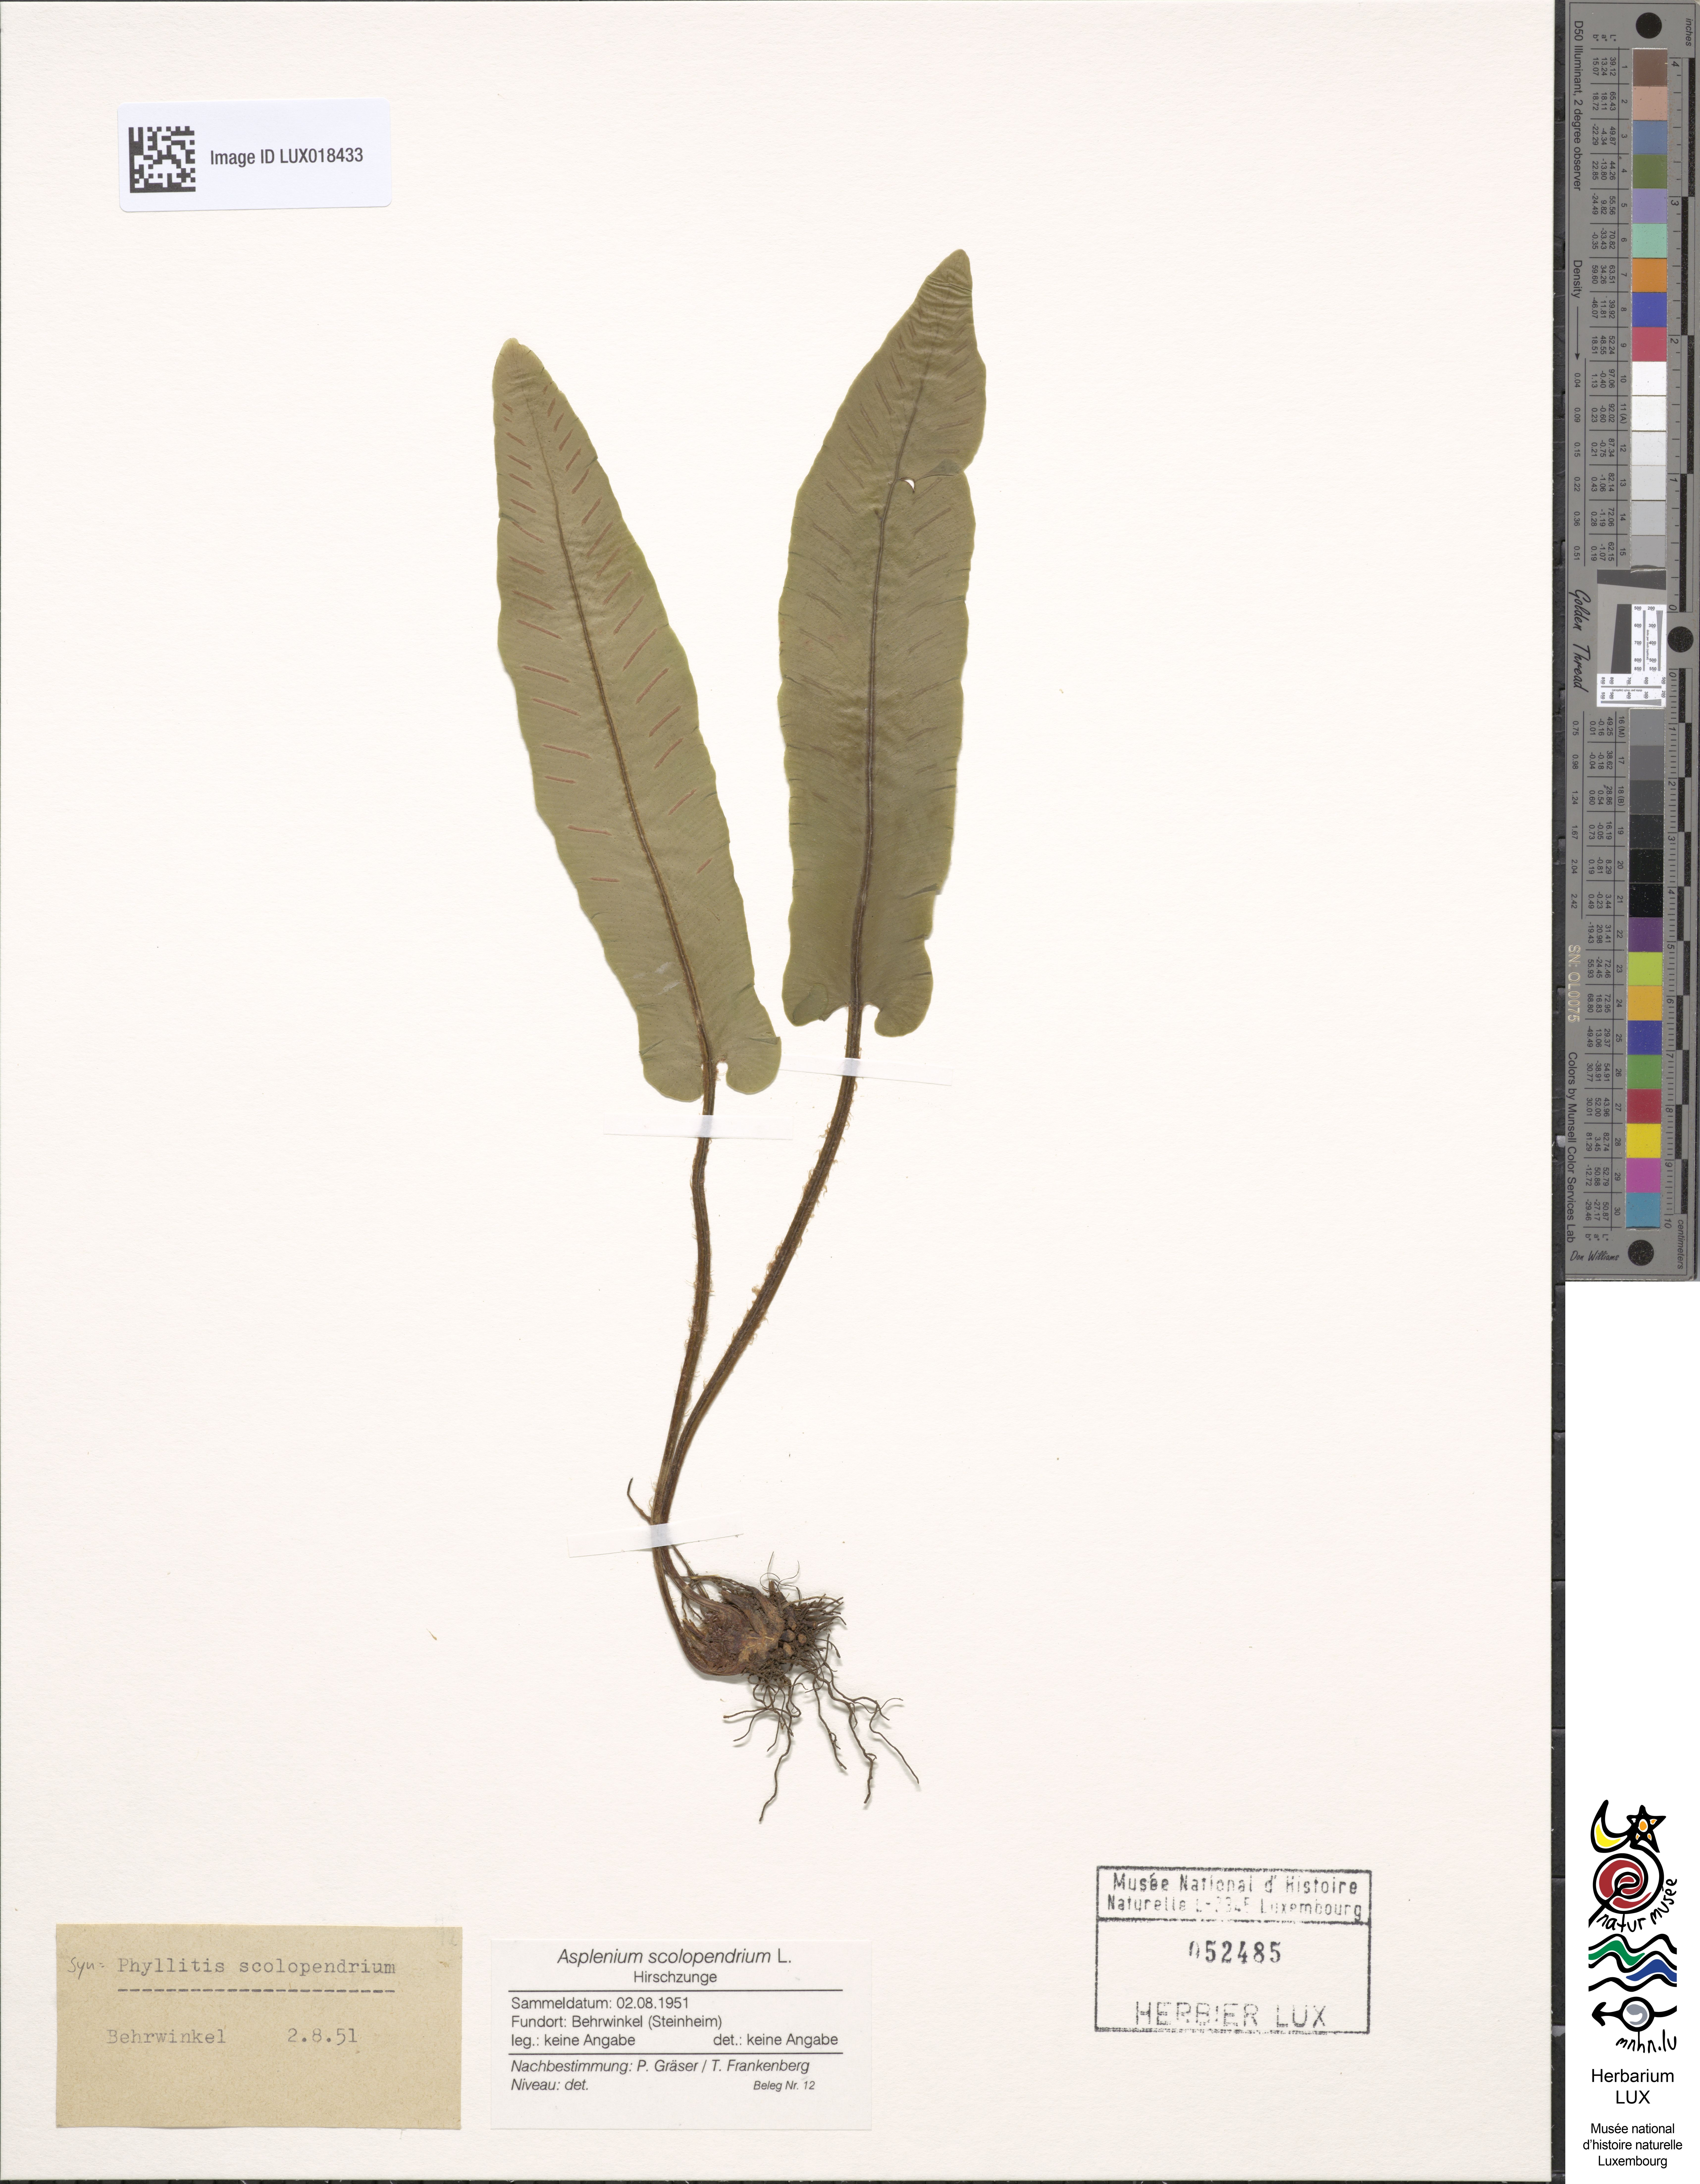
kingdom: Plantae
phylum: Tracheophyta
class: Polypodiopsida
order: Polypodiales
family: Aspleniaceae
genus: Asplenium
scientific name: Asplenium scolopendrium
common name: Hart's-tongue fern
